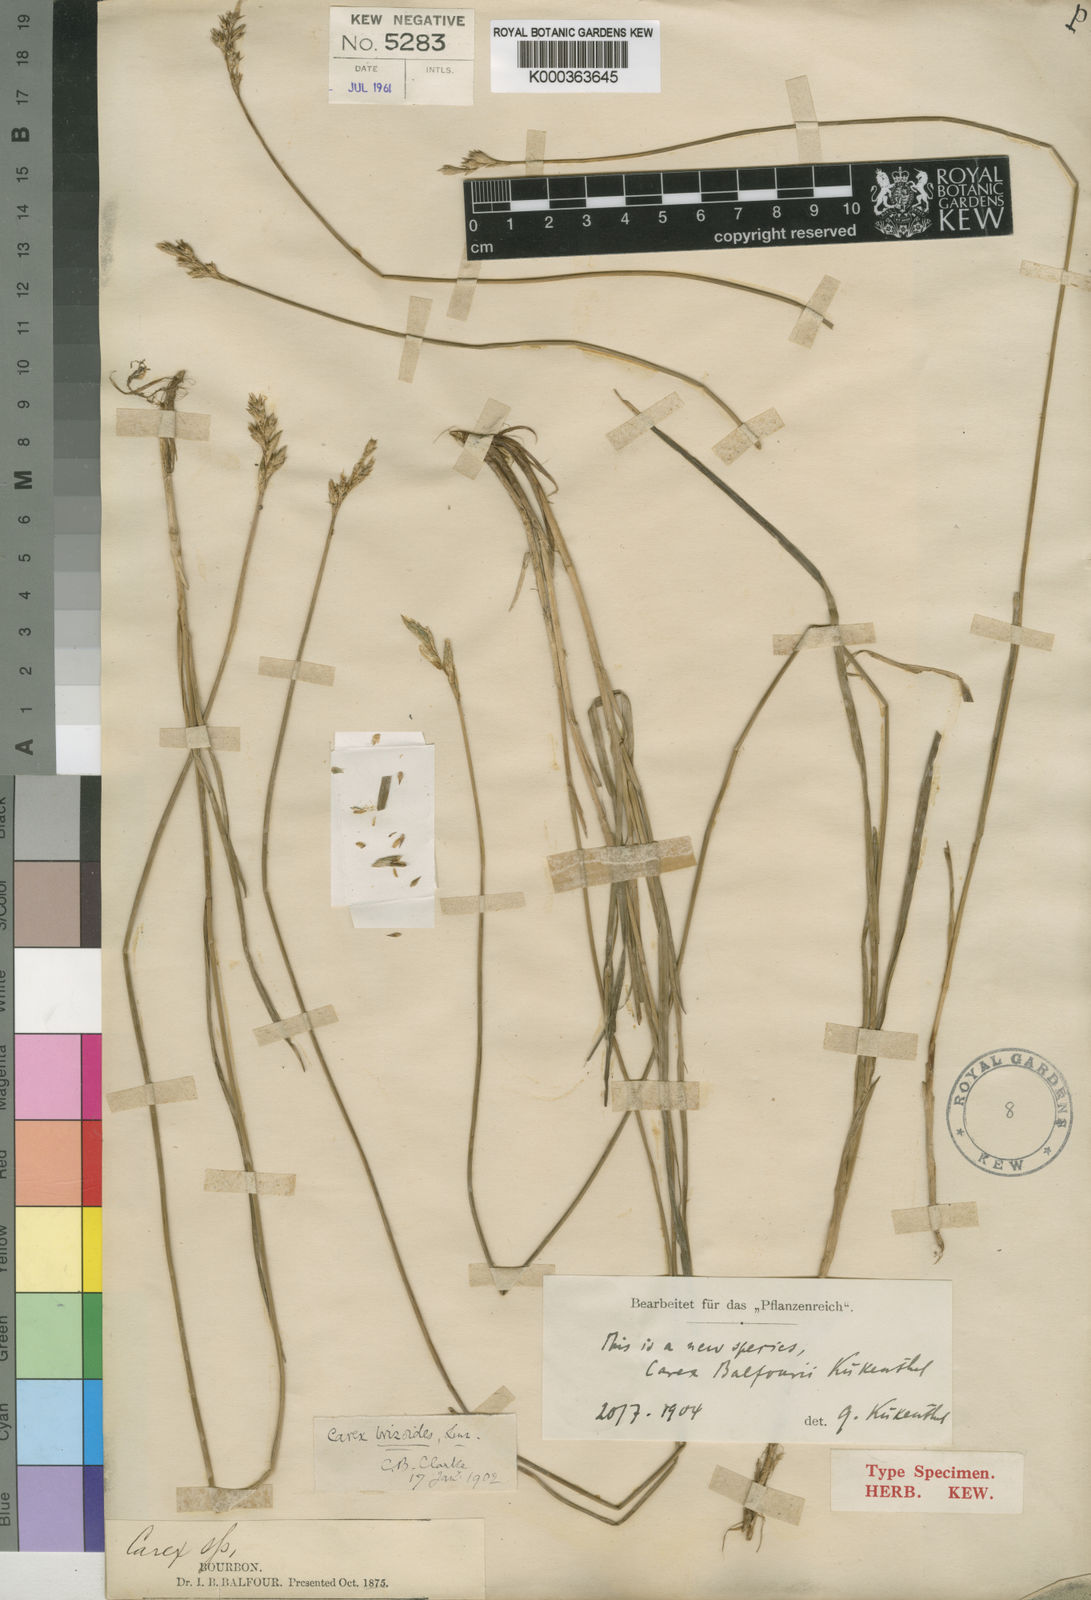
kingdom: Plantae
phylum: Tracheophyta
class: Liliopsida
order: Poales
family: Cyperaceae
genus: Carex
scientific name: Carex
